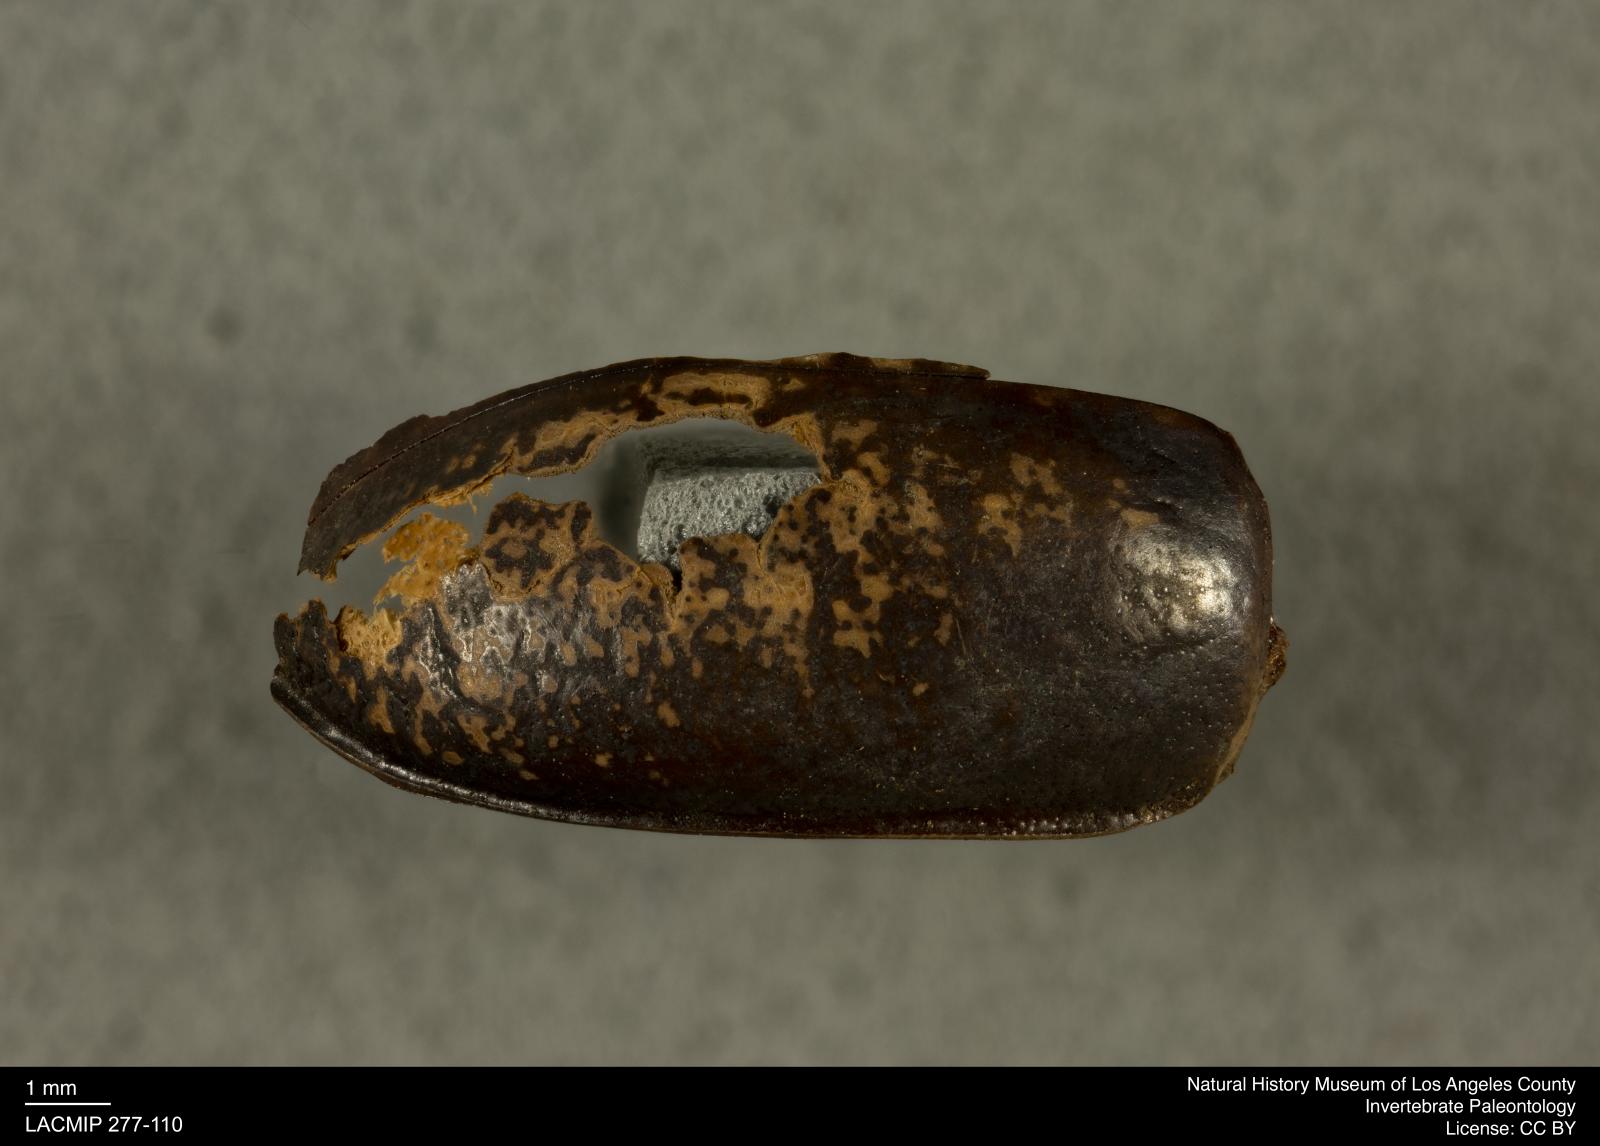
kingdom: Animalia
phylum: Arthropoda
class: Insecta
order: Coleoptera
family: Tenebrionidae
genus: Coniontis
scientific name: Coniontis abdominalis
